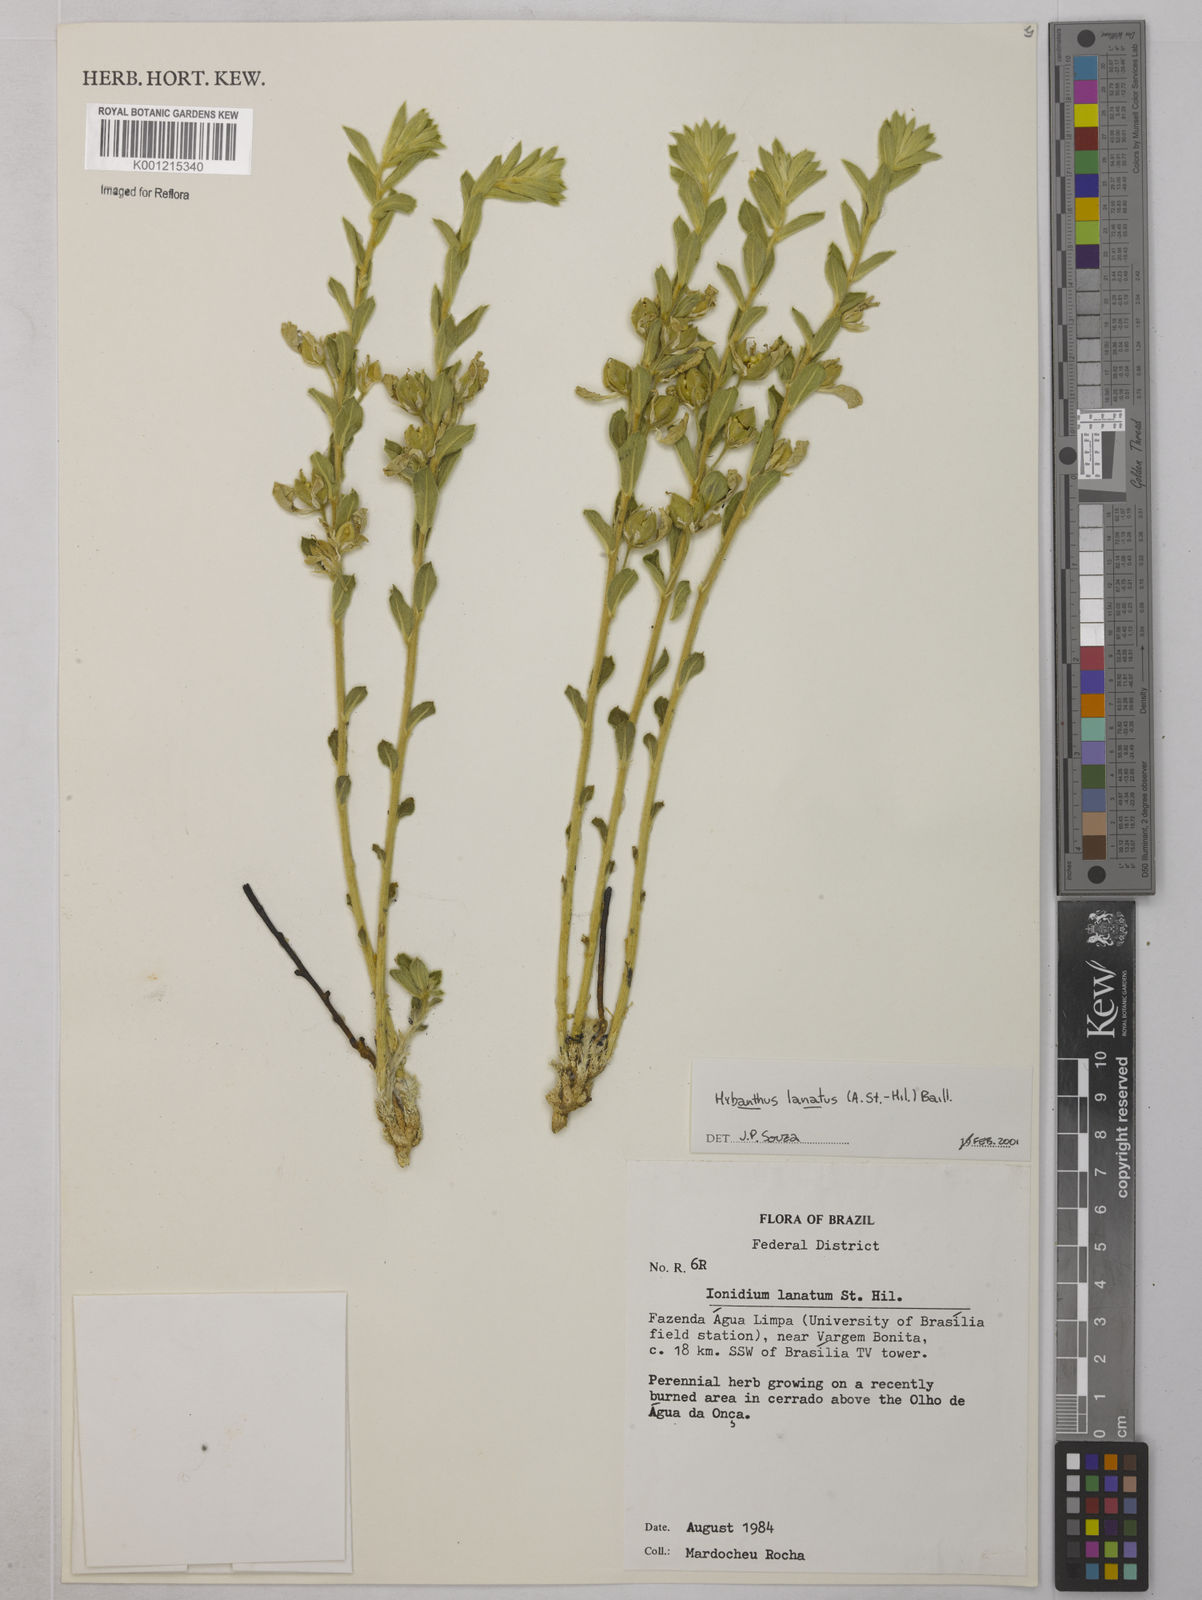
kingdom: Plantae
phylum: Tracheophyta
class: Magnoliopsida
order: Malpighiales
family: Violaceae
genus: Pombalia
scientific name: Pombalia lanata
